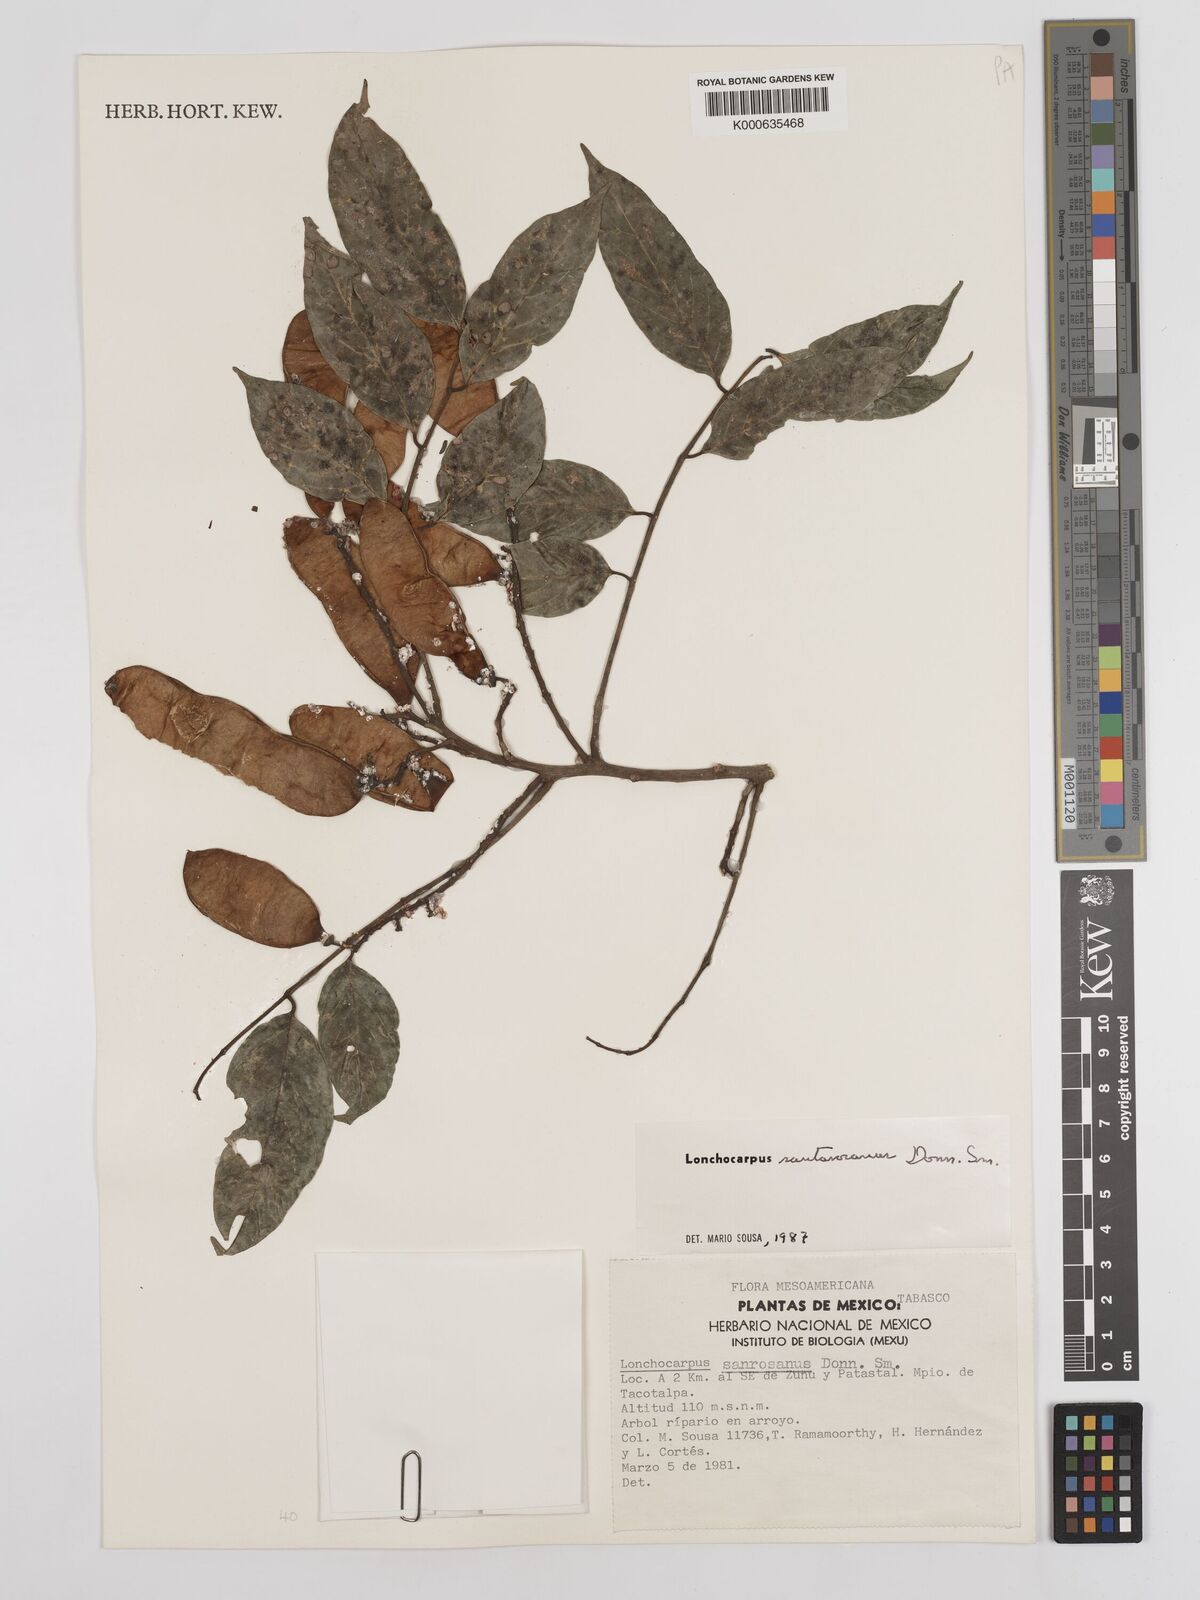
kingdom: Plantae
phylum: Tracheophyta
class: Magnoliopsida
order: Fabales
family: Fabaceae
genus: Lonchocarpus
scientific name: Lonchocarpus santarosanus
